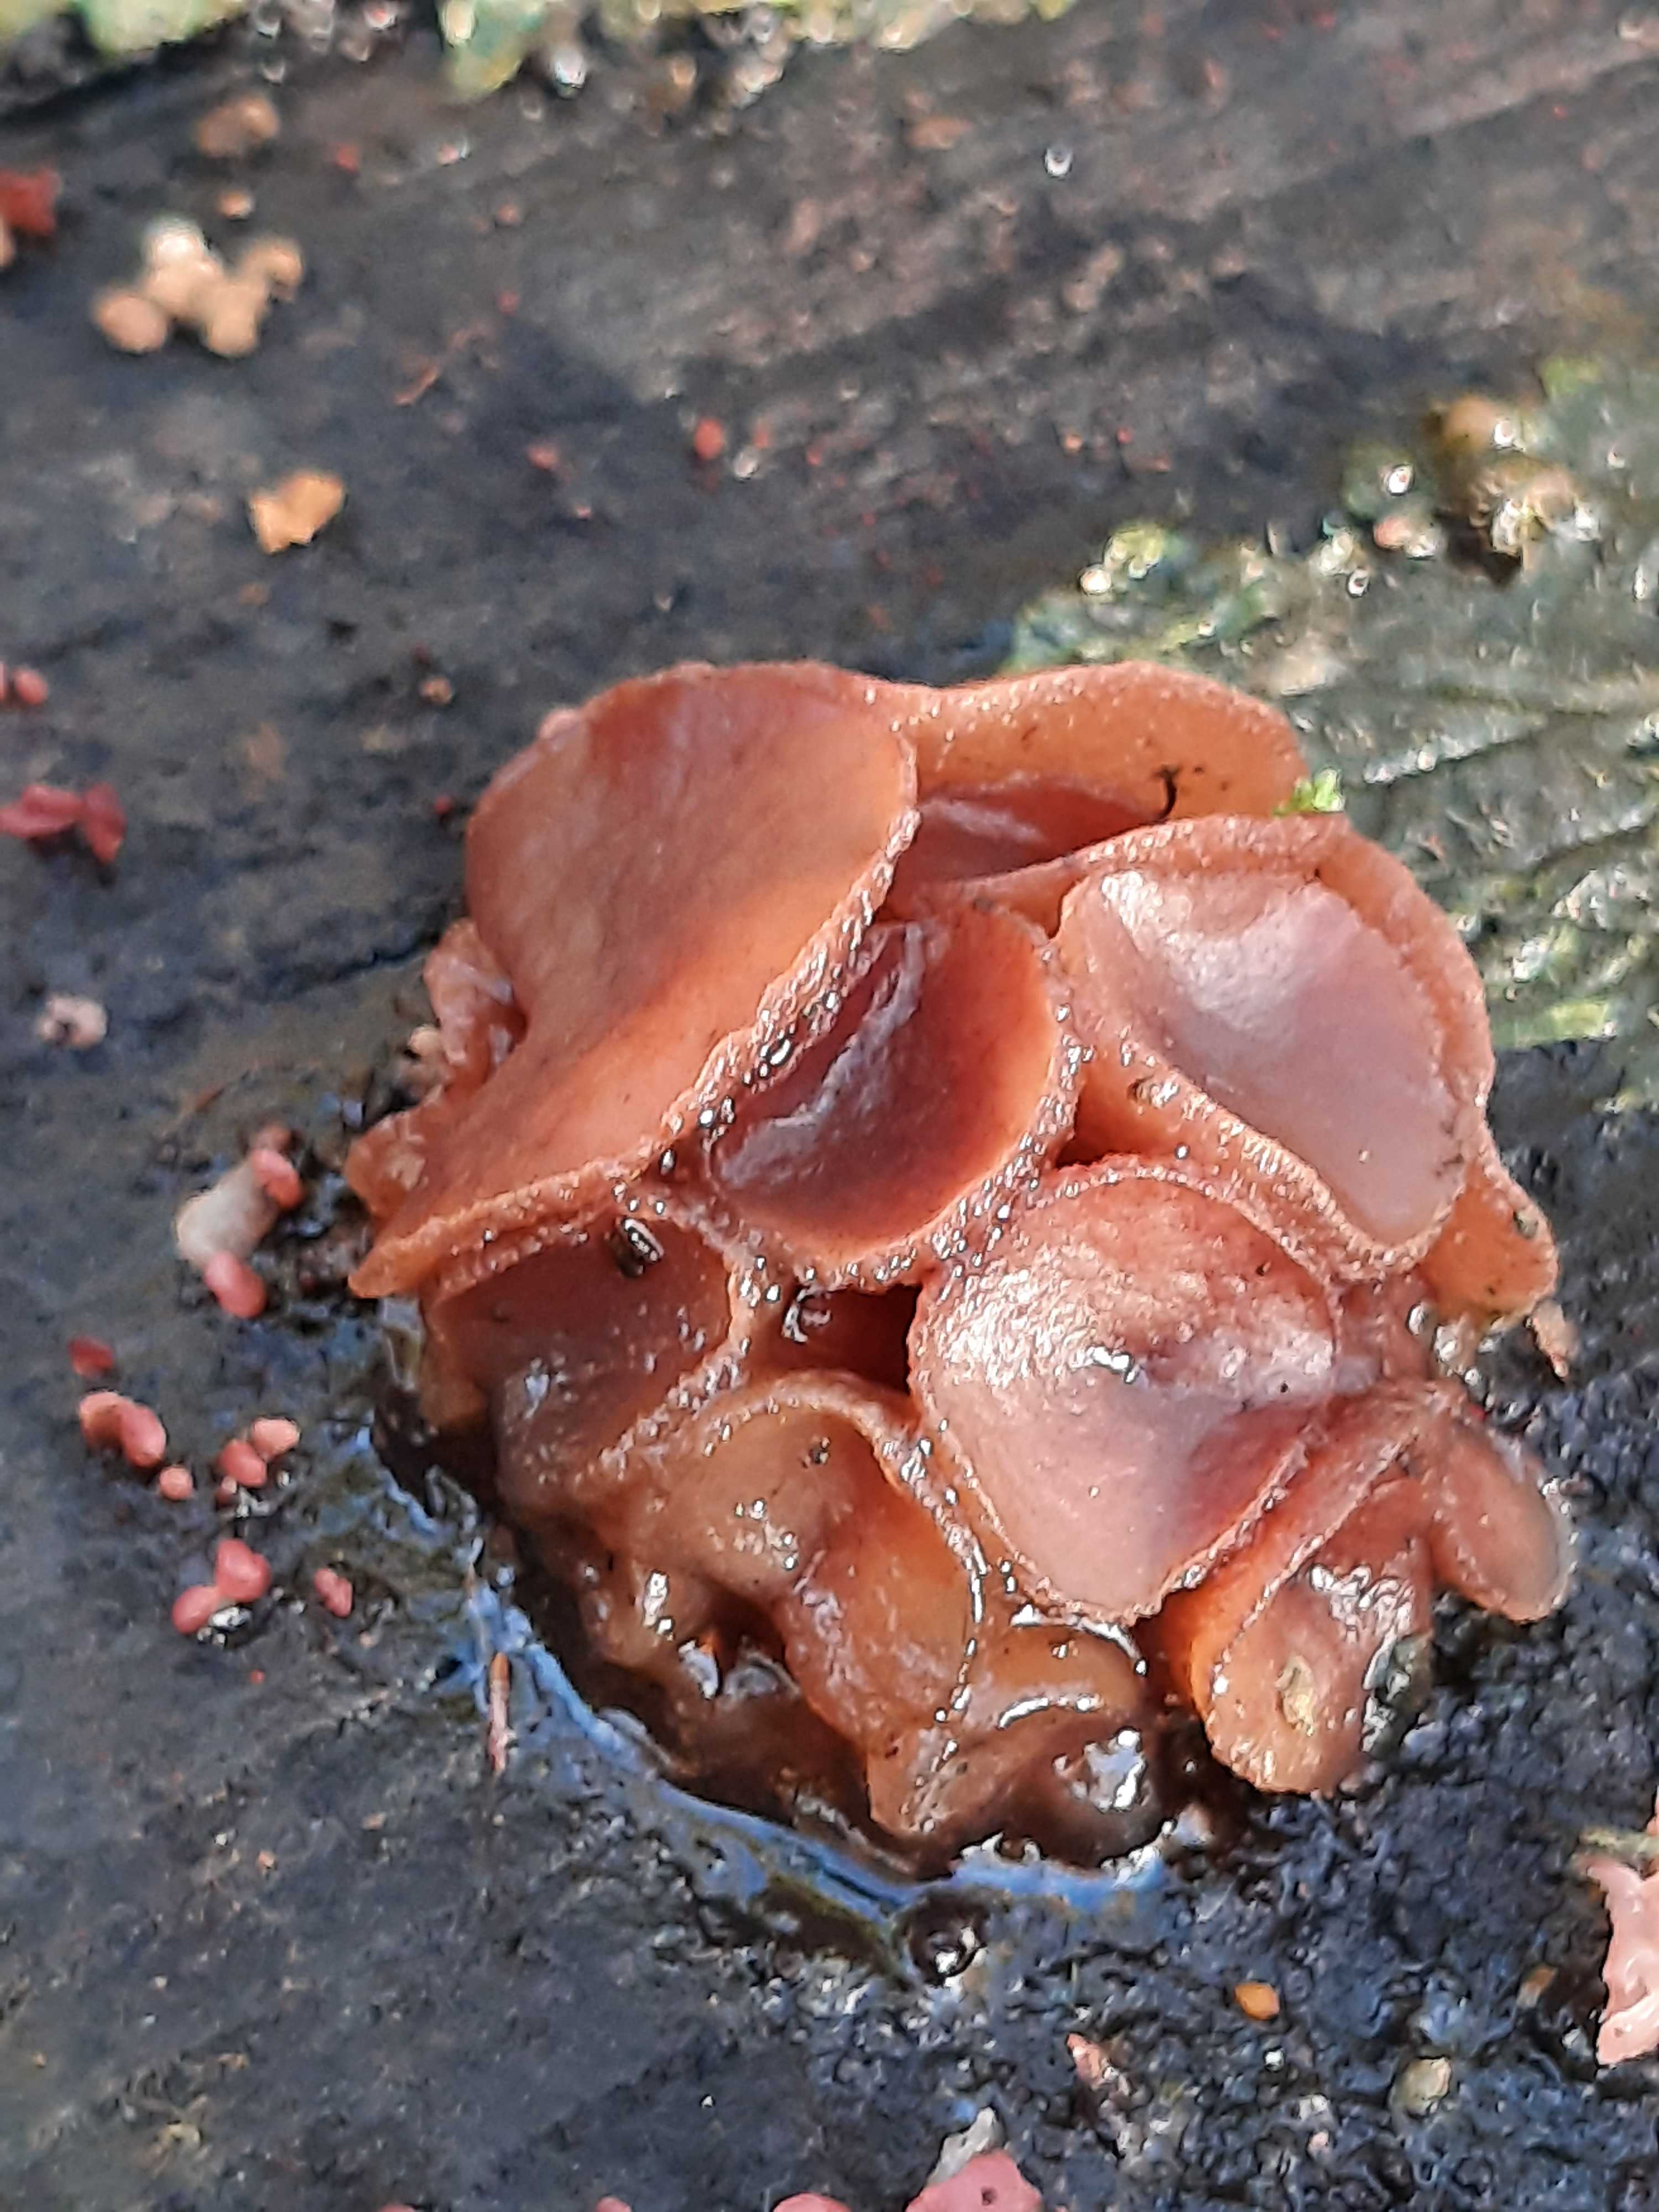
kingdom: Fungi
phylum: Ascomycota
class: Leotiomycetes
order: Helotiales
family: Gelatinodiscaceae
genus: Neobulgaria
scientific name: Neobulgaria pura
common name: bleg bævreskive
